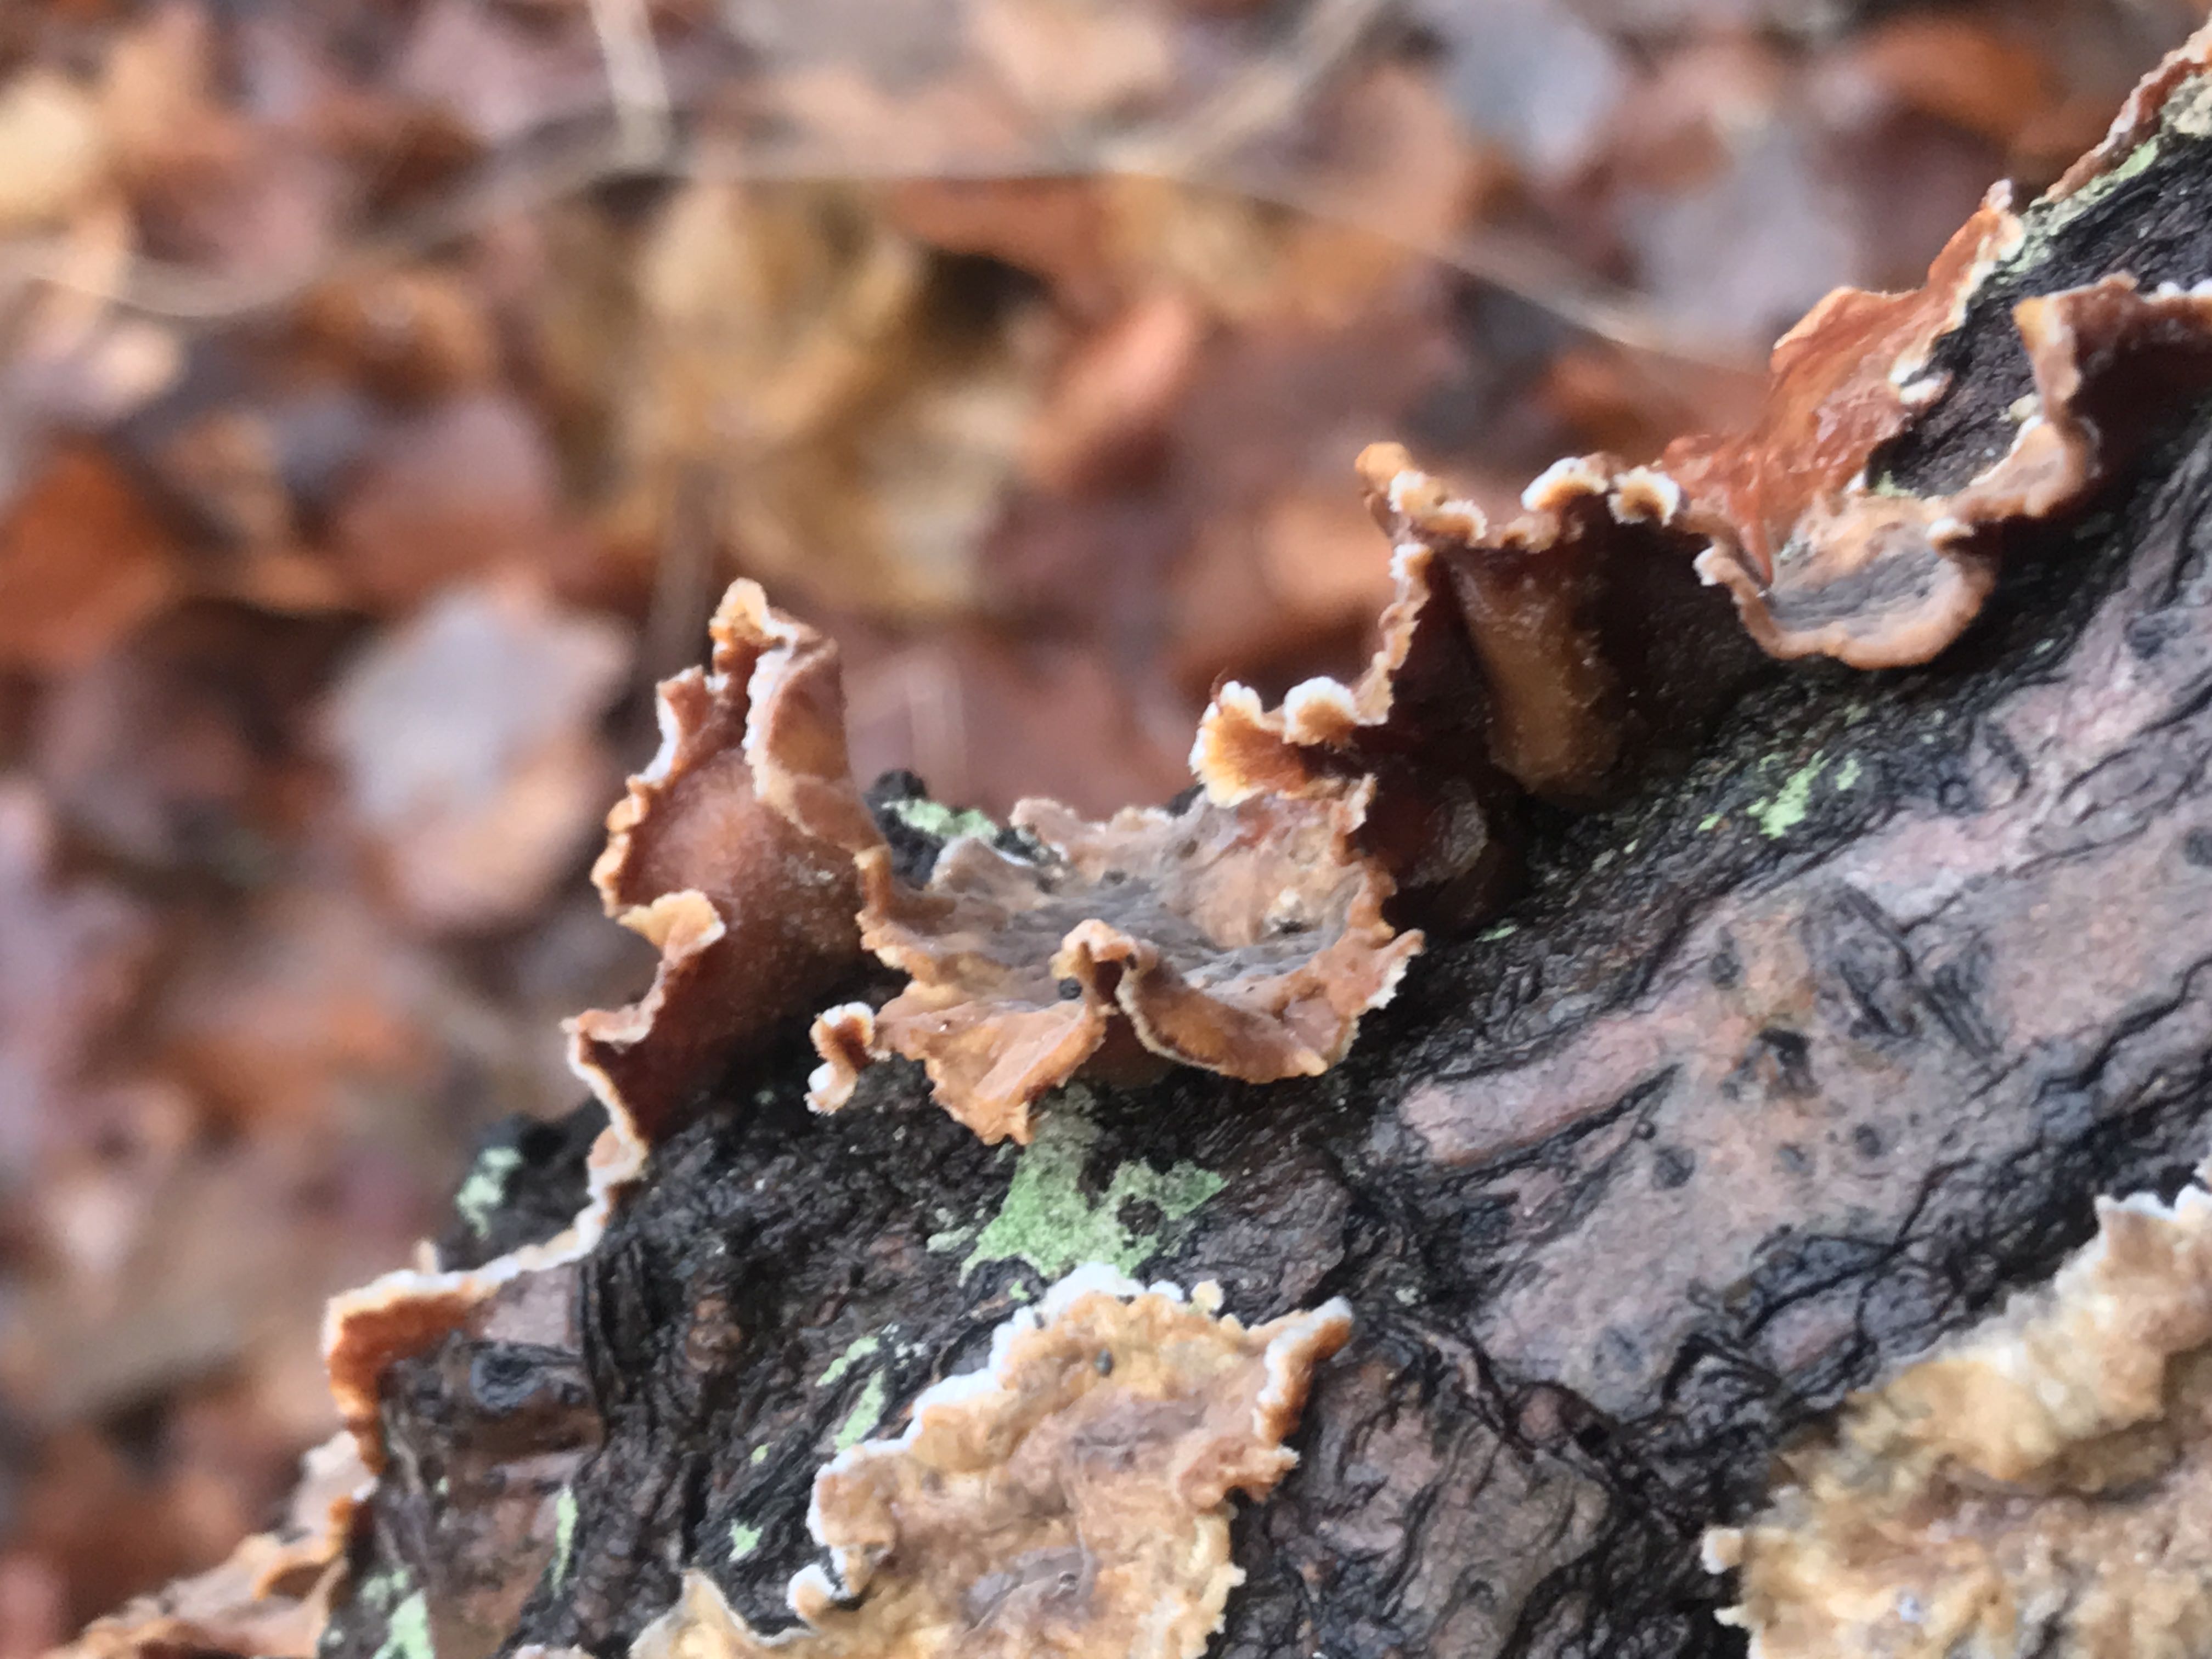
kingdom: Fungi
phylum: Basidiomycota
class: Agaricomycetes
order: Russulales
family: Stereaceae
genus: Stereum
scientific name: Stereum gausapatum
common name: tynd lædersvamp
